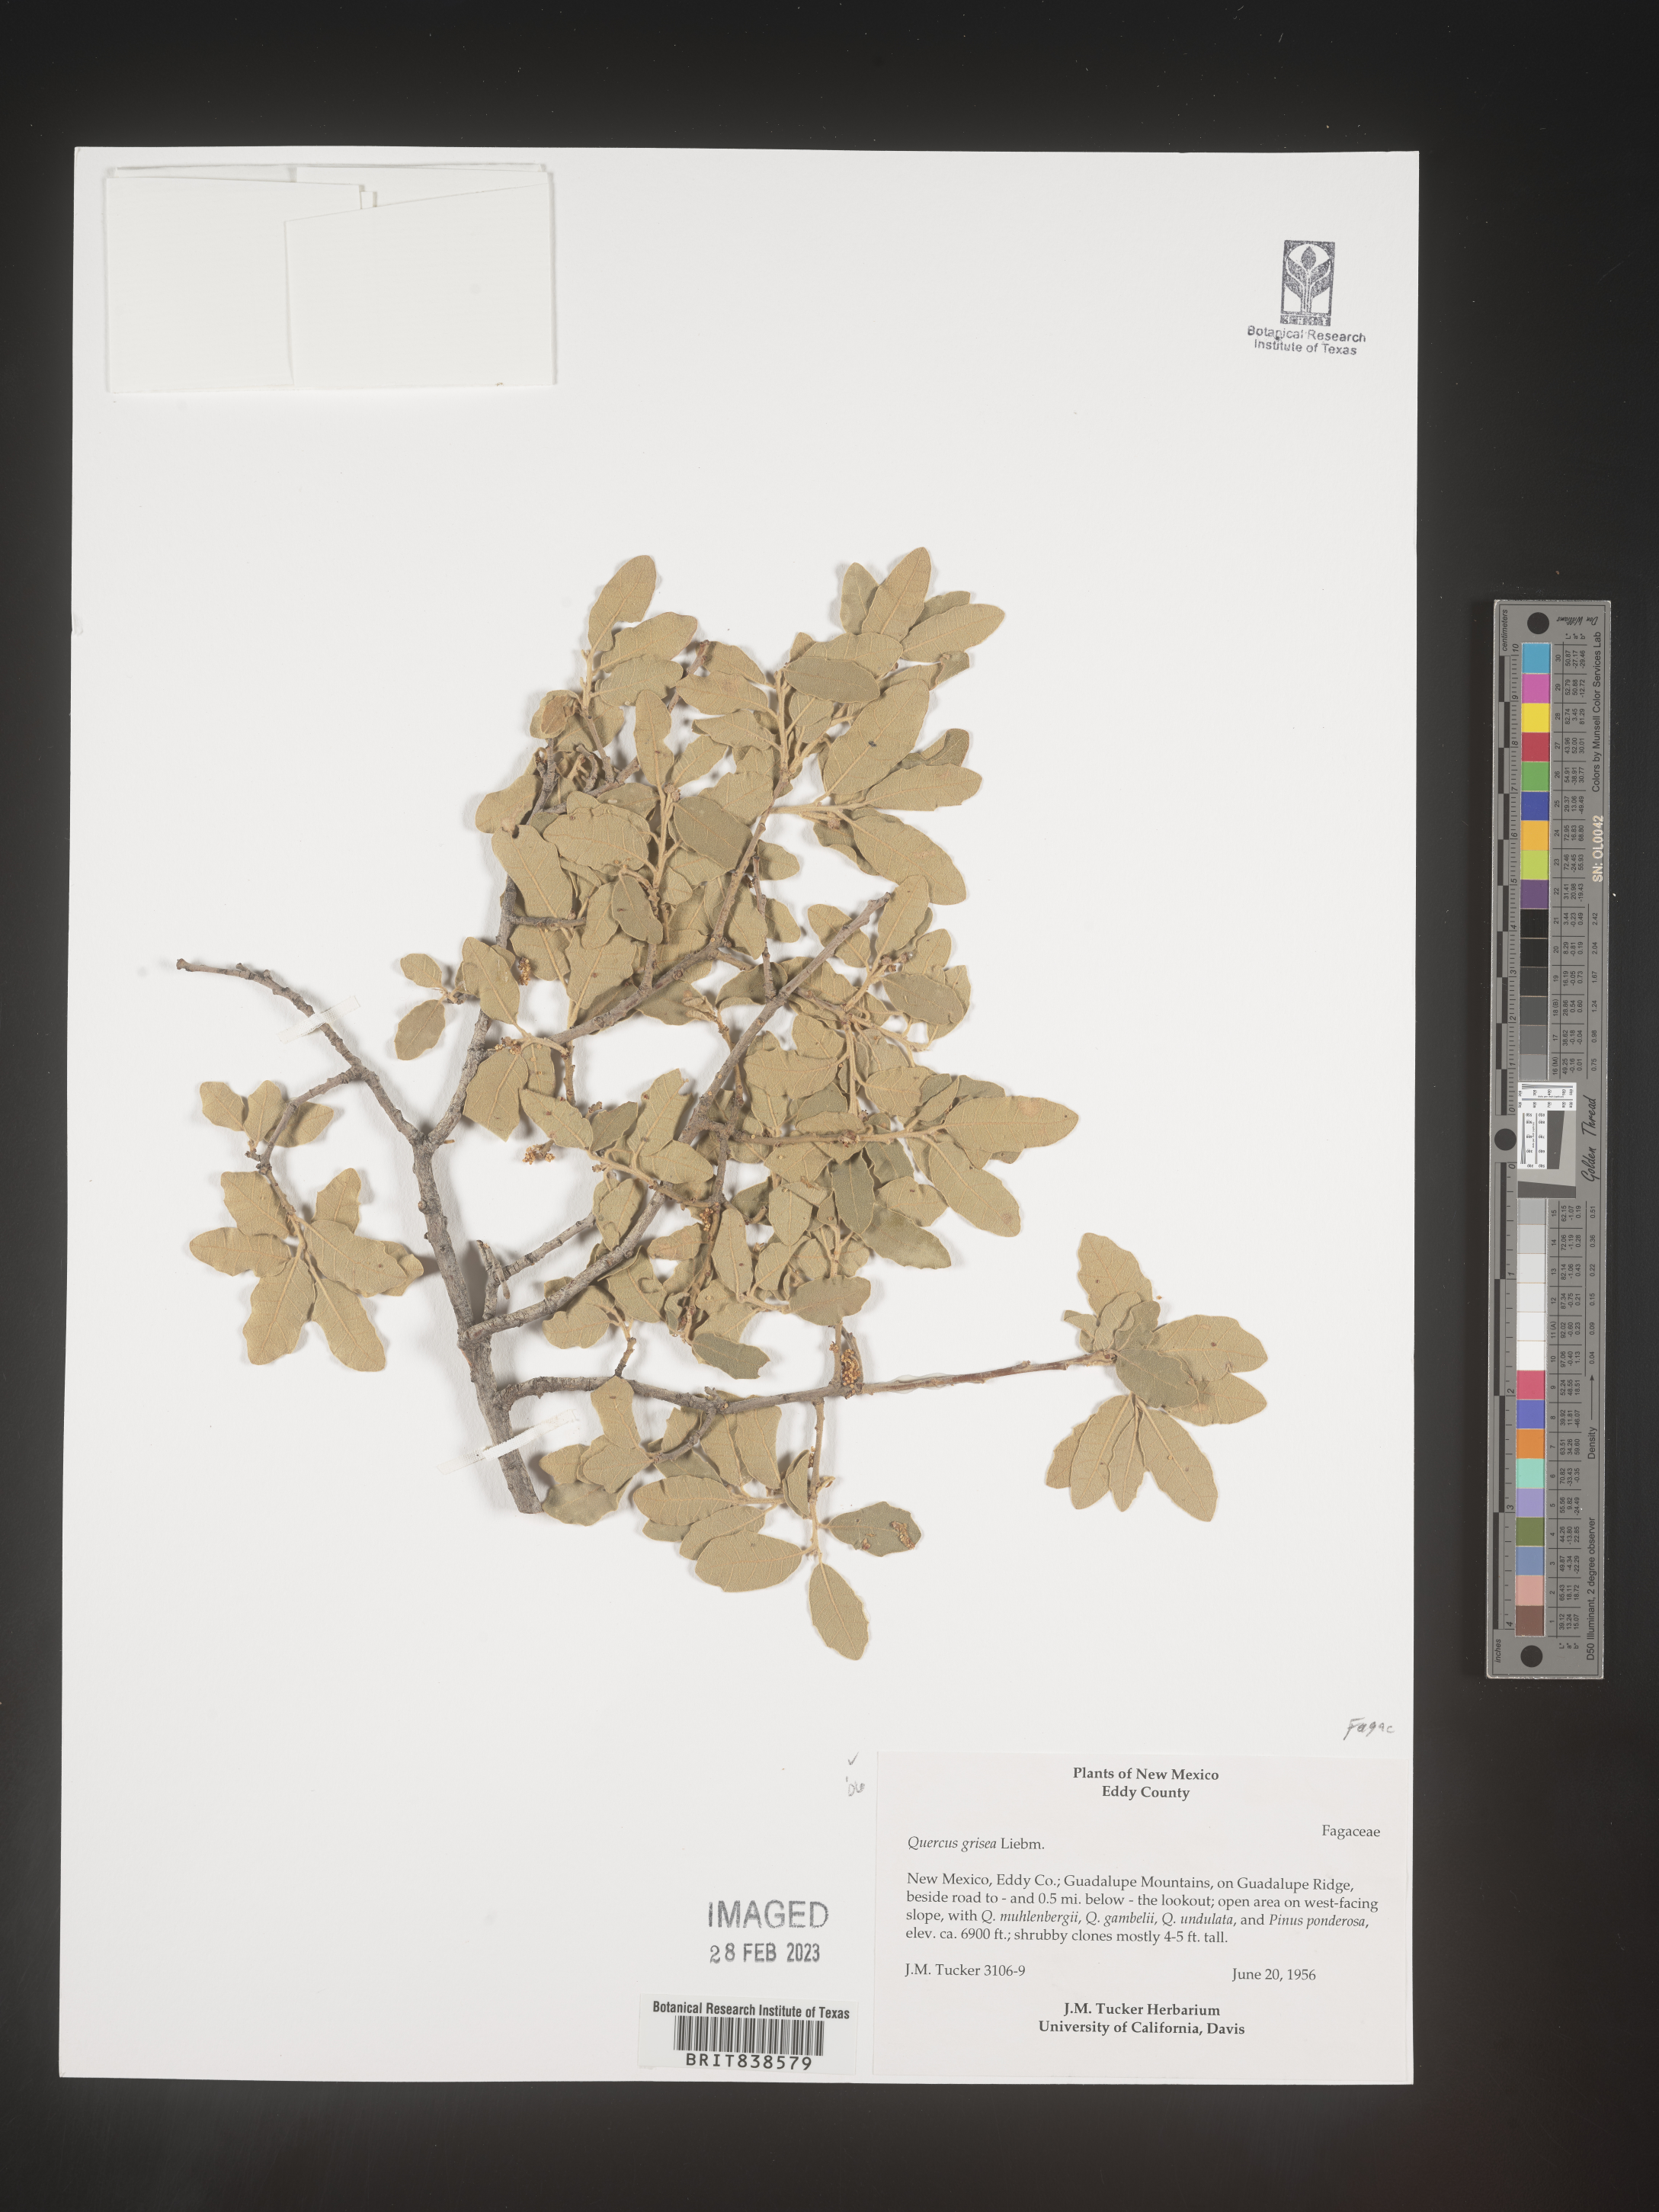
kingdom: Plantae
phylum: Tracheophyta
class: Magnoliopsida
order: Fagales
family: Fagaceae
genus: Quercus
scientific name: Quercus grisea
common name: Gray oak
